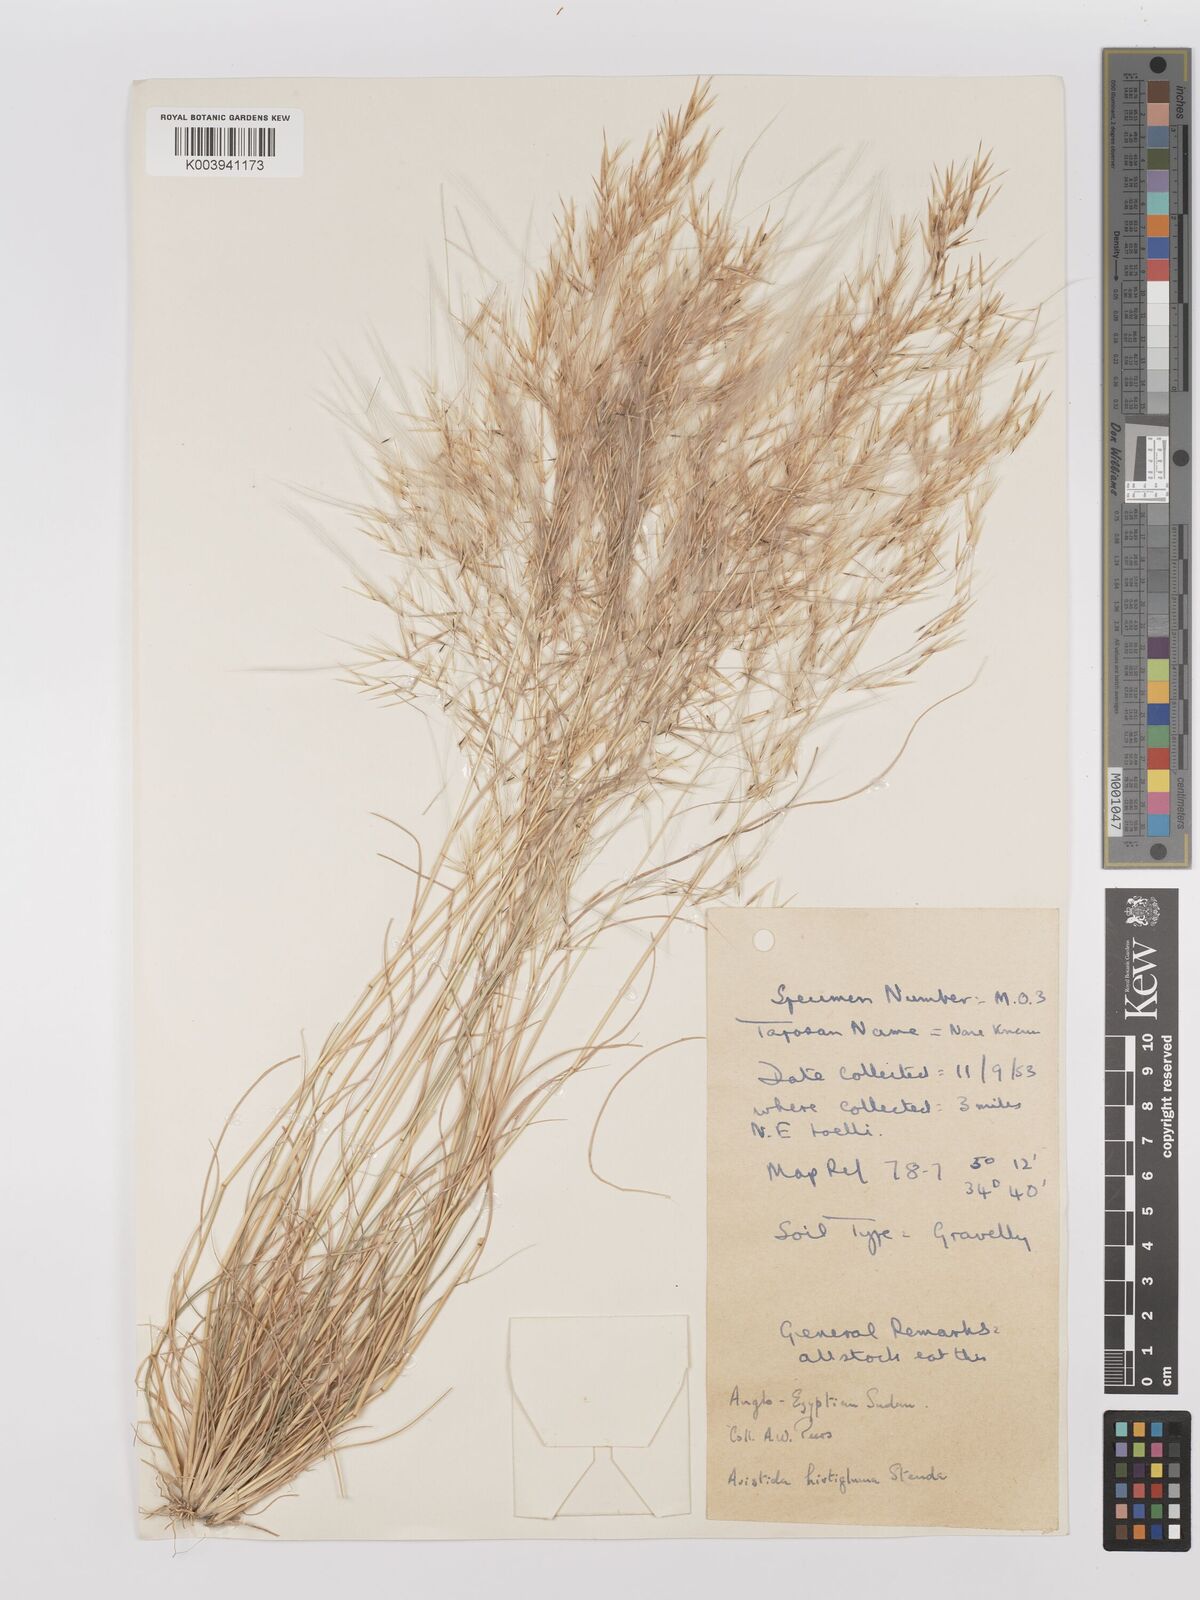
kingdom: Plantae
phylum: Tracheophyta
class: Liliopsida
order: Poales
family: Poaceae
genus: Stipagrostis
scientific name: Stipagrostis hirtigluma
